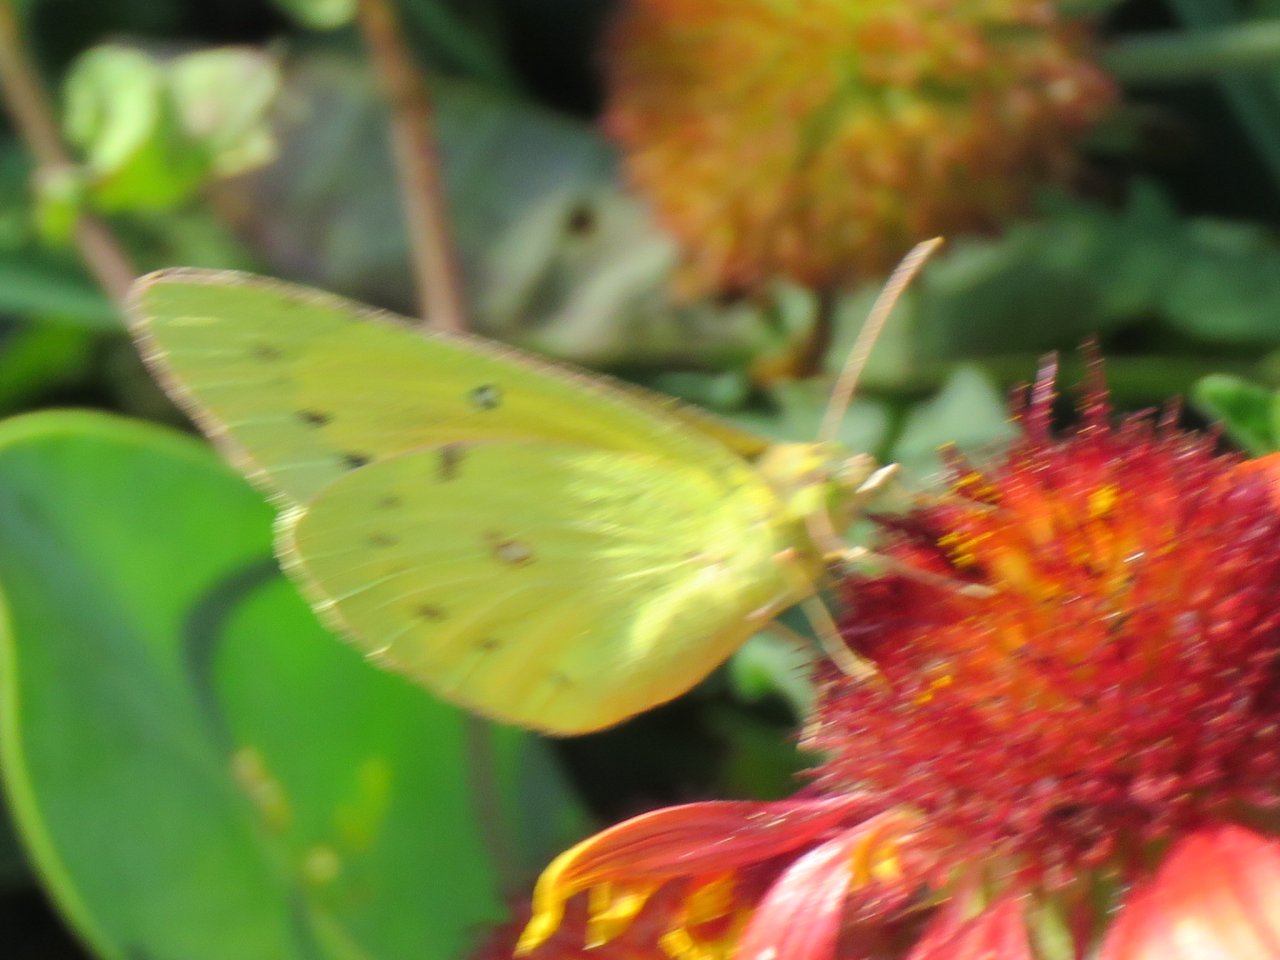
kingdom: Animalia
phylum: Arthropoda
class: Insecta
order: Lepidoptera
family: Pieridae
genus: Colias
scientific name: Colias eurytheme
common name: Orange Sulphur
